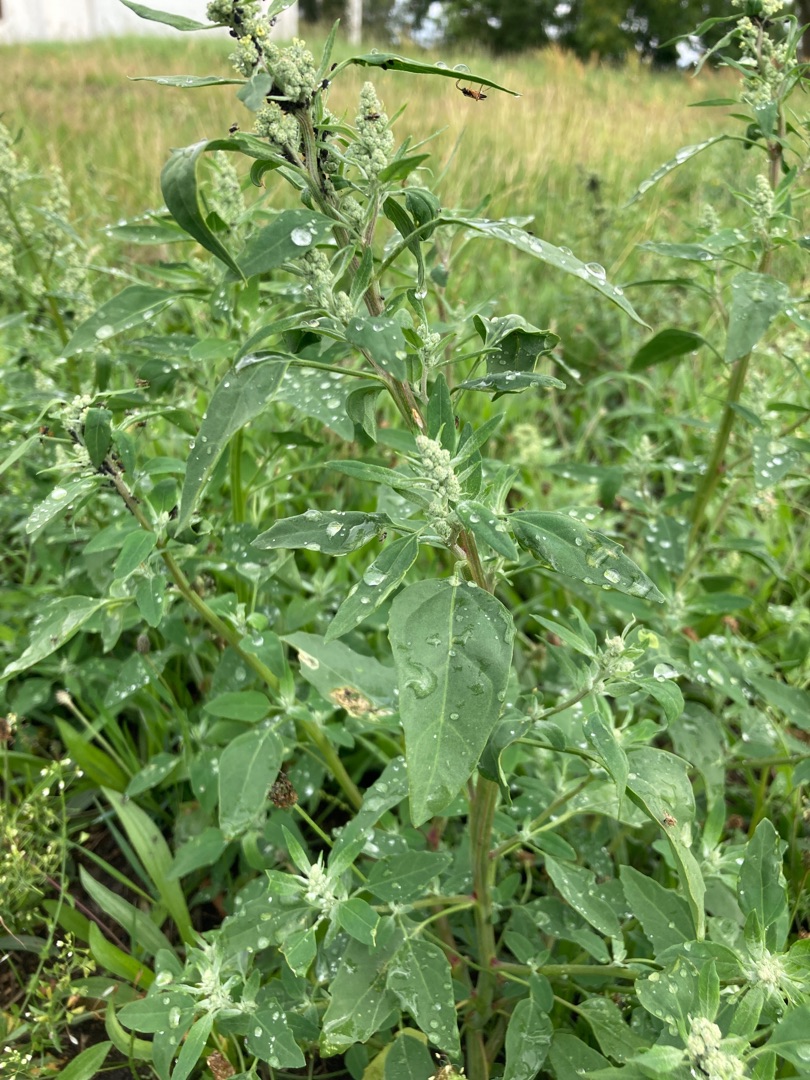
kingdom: Plantae
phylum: Tracheophyta
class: Magnoliopsida
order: Caryophyllales
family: Amaranthaceae
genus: Chenopodium
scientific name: Chenopodium album
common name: Hvidmelet gåsefod
